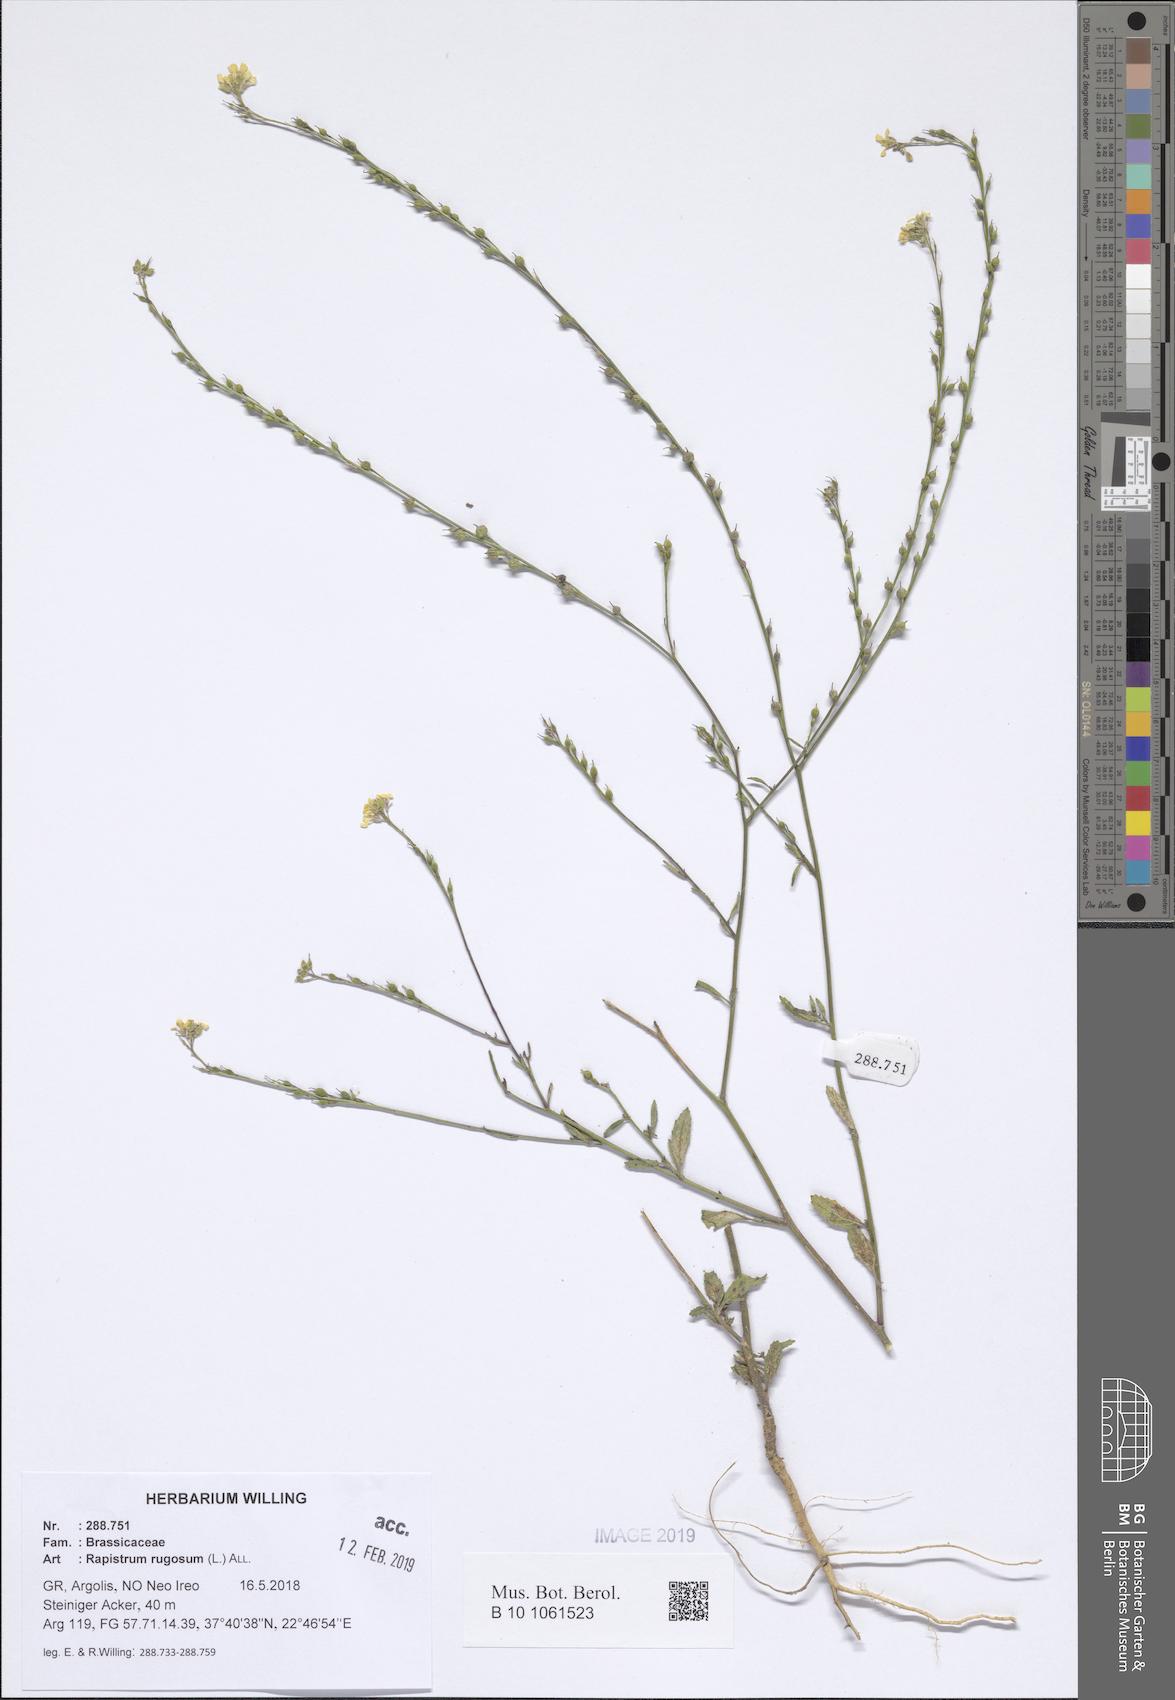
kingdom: Plantae
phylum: Tracheophyta
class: Magnoliopsida
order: Brassicales
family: Brassicaceae
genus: Rapistrum
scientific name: Rapistrum rugosum
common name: Annual bastardcabbage
